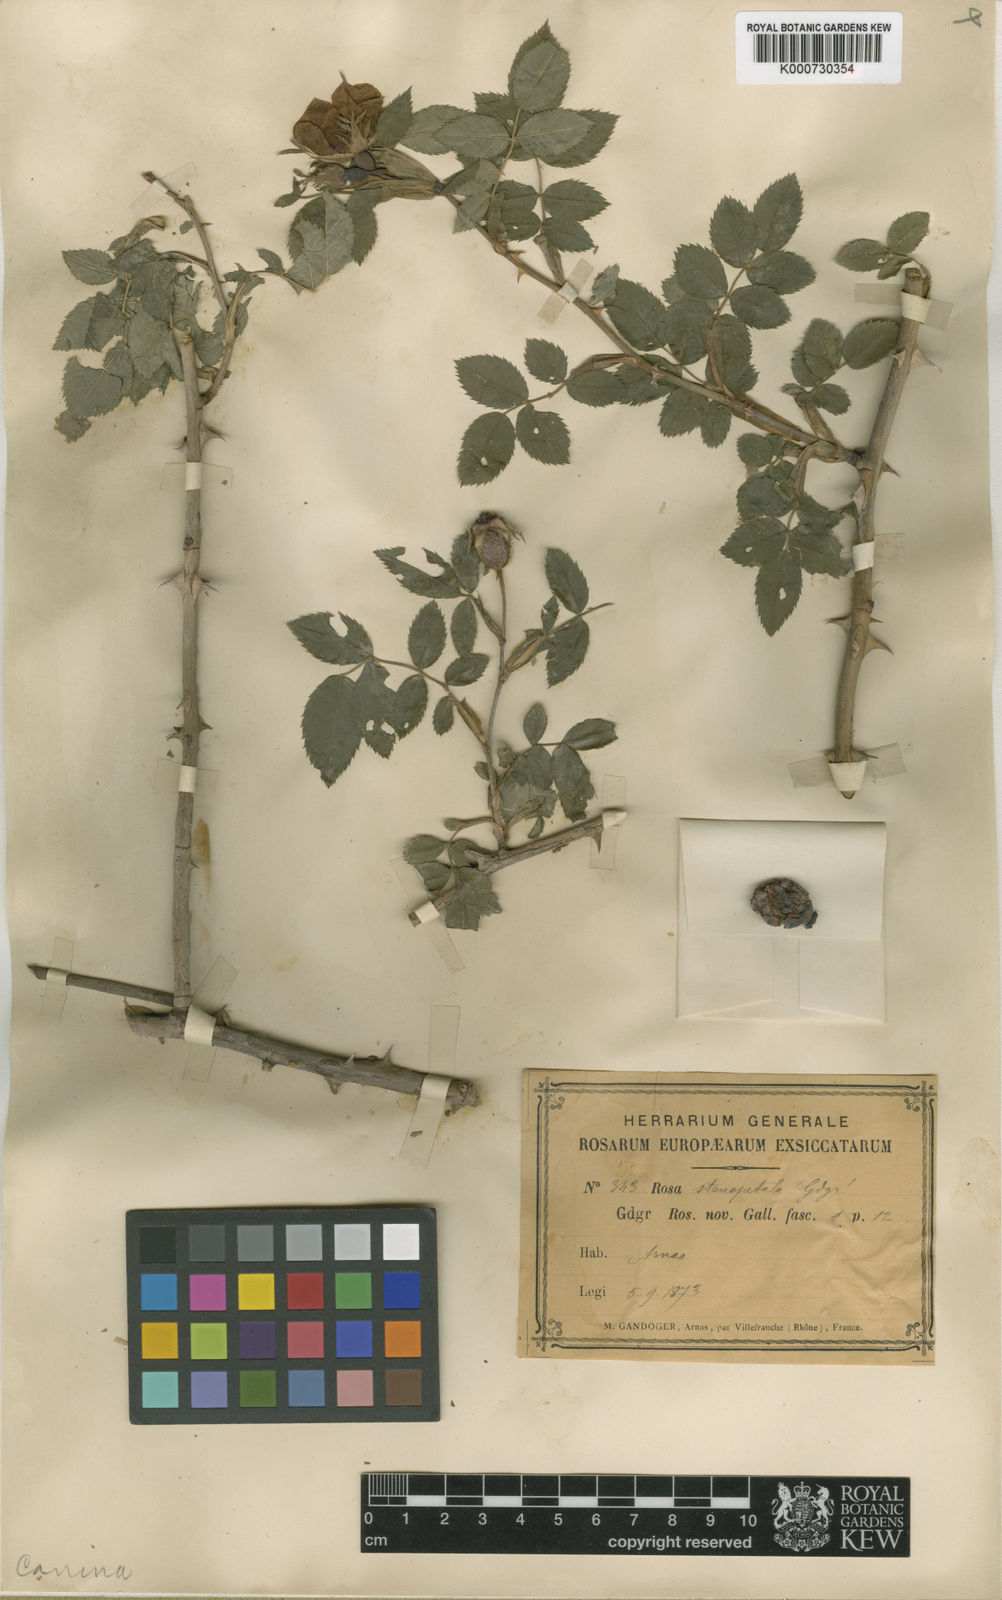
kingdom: Plantae
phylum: Tracheophyta
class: Magnoliopsida
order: Rosales
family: Rosaceae
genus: Rosa
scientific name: Rosa canina
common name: Dog rose
